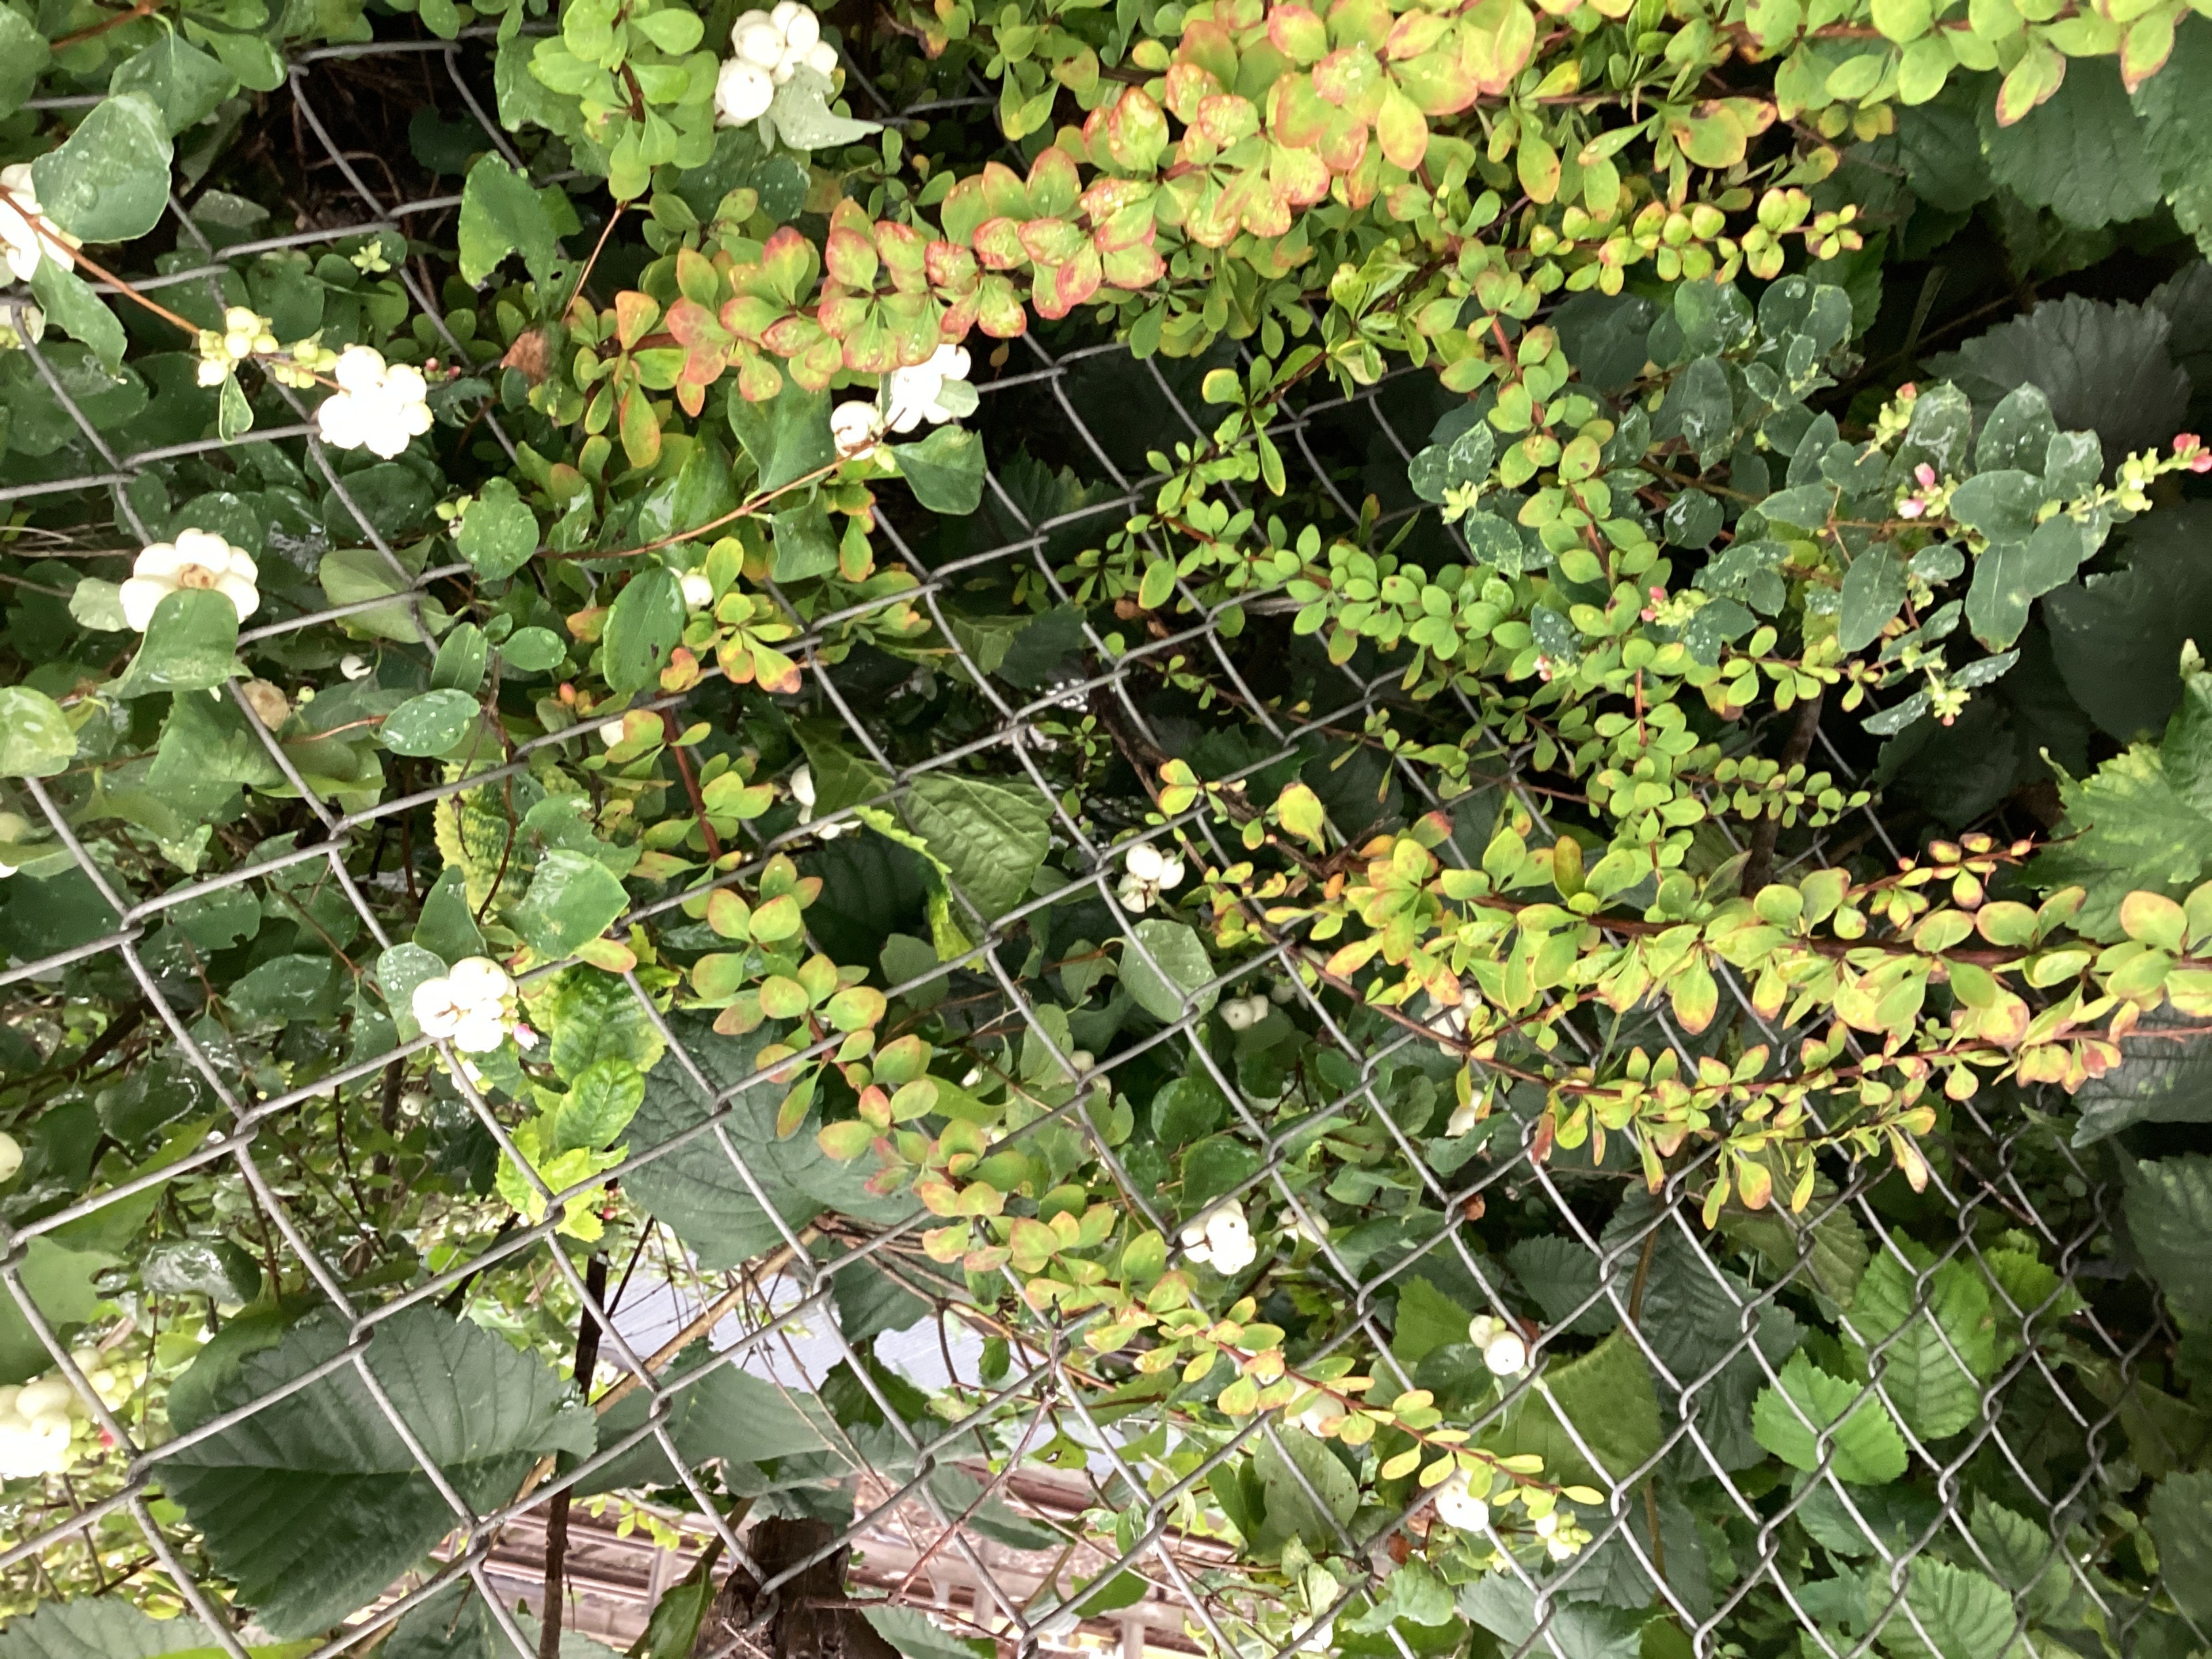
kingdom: Plantae
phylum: Tracheophyta
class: Magnoliopsida
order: Ranunculales
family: Berberidaceae
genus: Berberis
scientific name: Berberis thunbergii
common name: høstberberis
